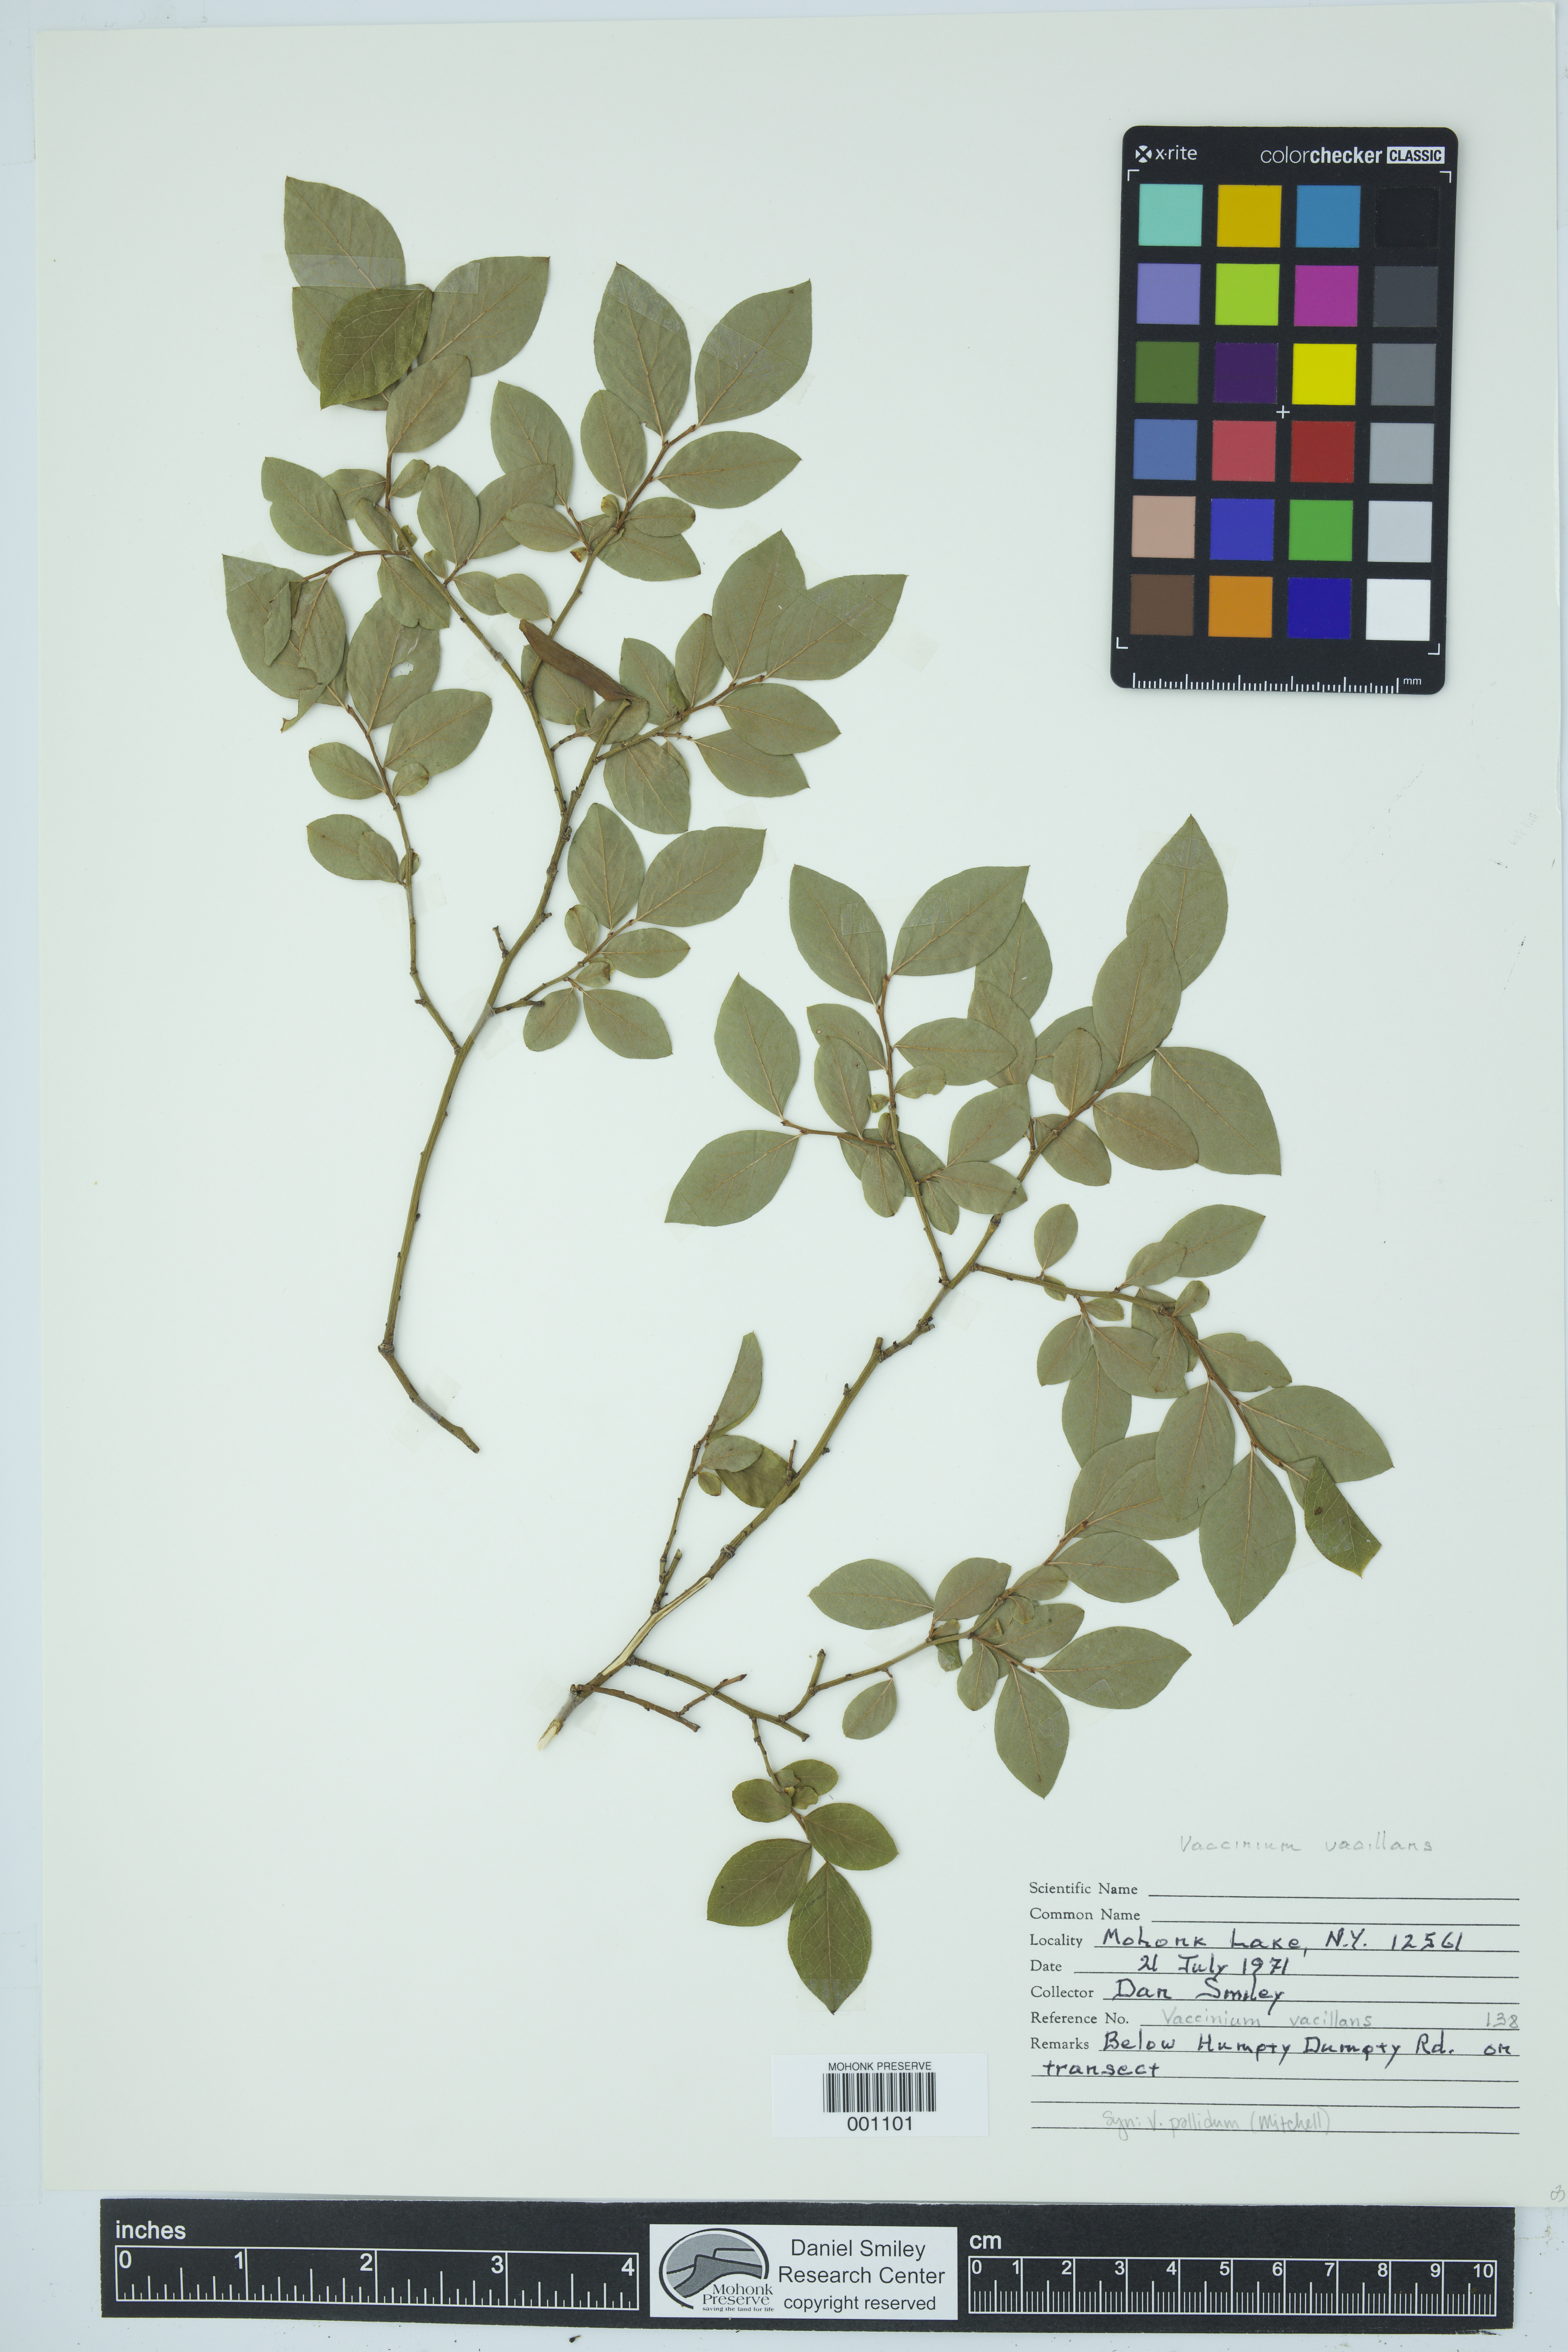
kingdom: Plantae
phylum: Tracheophyta
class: Magnoliopsida
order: Ericales
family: Ericaceae
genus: Vaccinium
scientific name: Vaccinium pallidum
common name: Blue ridge blueberry
